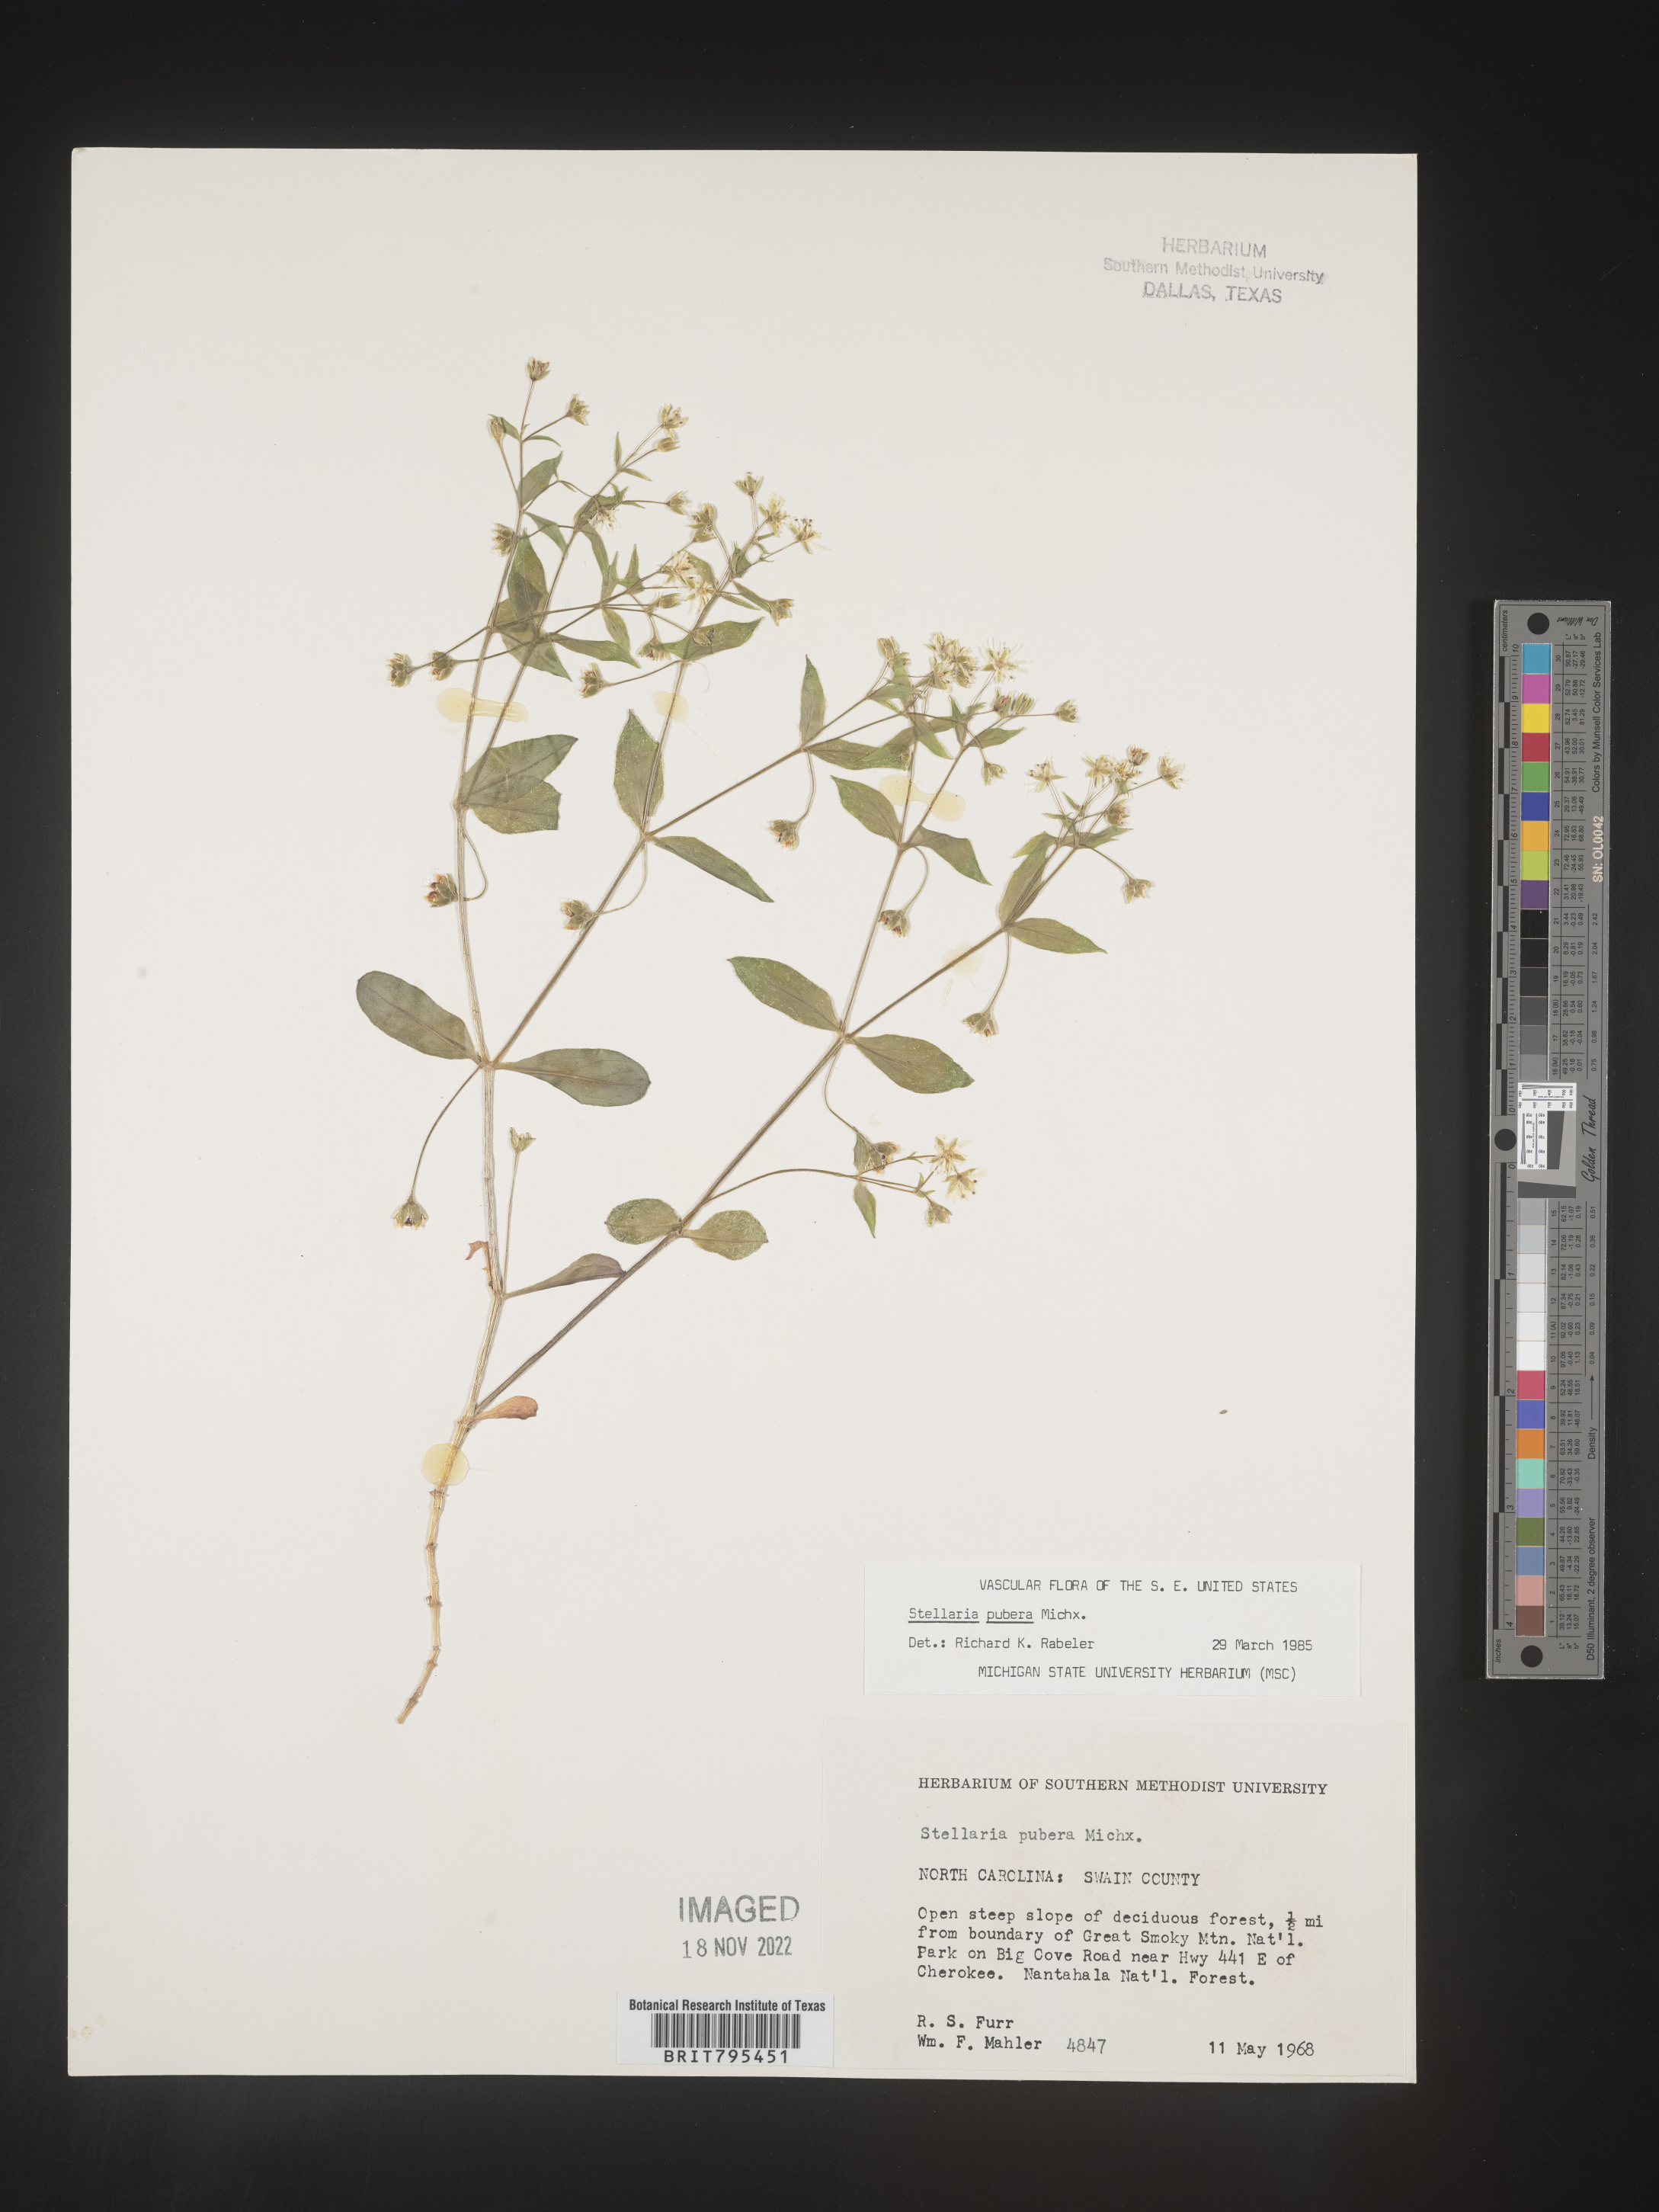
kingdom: Plantae
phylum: Tracheophyta
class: Magnoliopsida
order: Caryophyllales
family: Caryophyllaceae
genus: Stellaria
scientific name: Stellaria pubera
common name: Star chickweed
